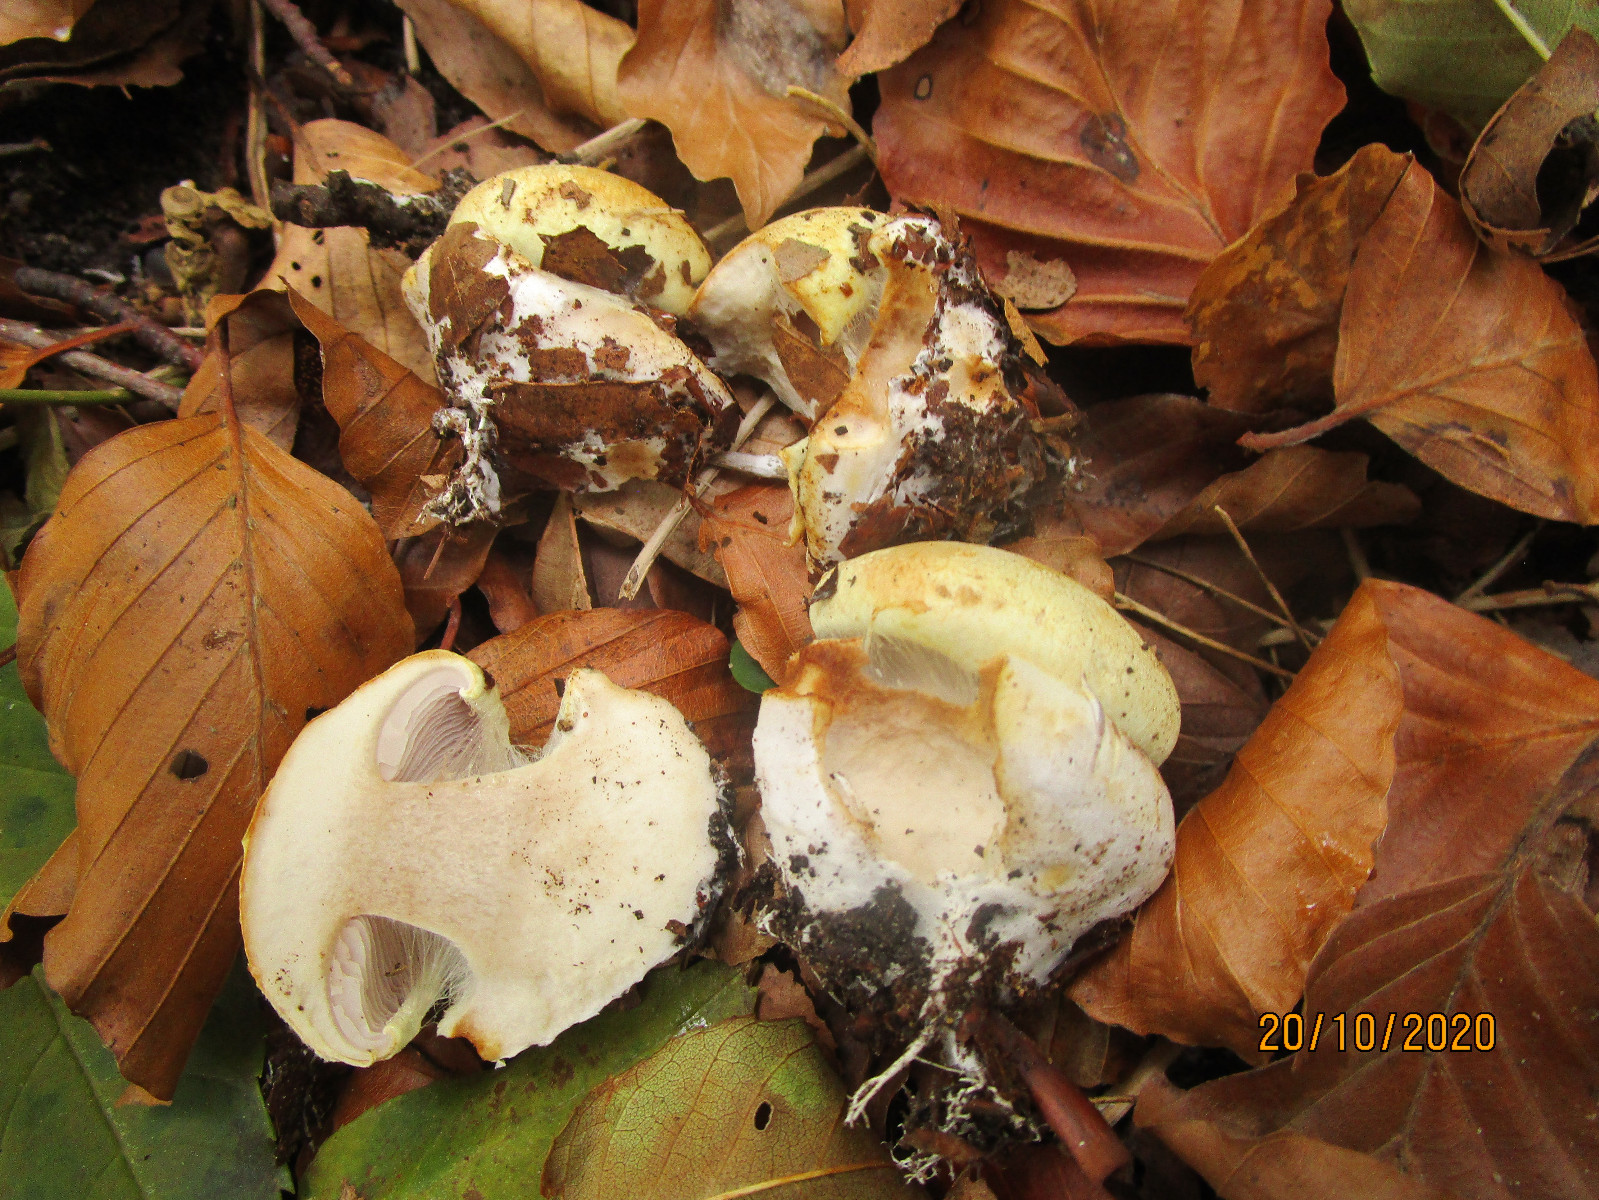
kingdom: Fungi
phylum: Basidiomycota
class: Agaricomycetes
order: Agaricales
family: Cortinariaceae
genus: Calonarius
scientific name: Calonarius catharinae
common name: Katrines slørhat
